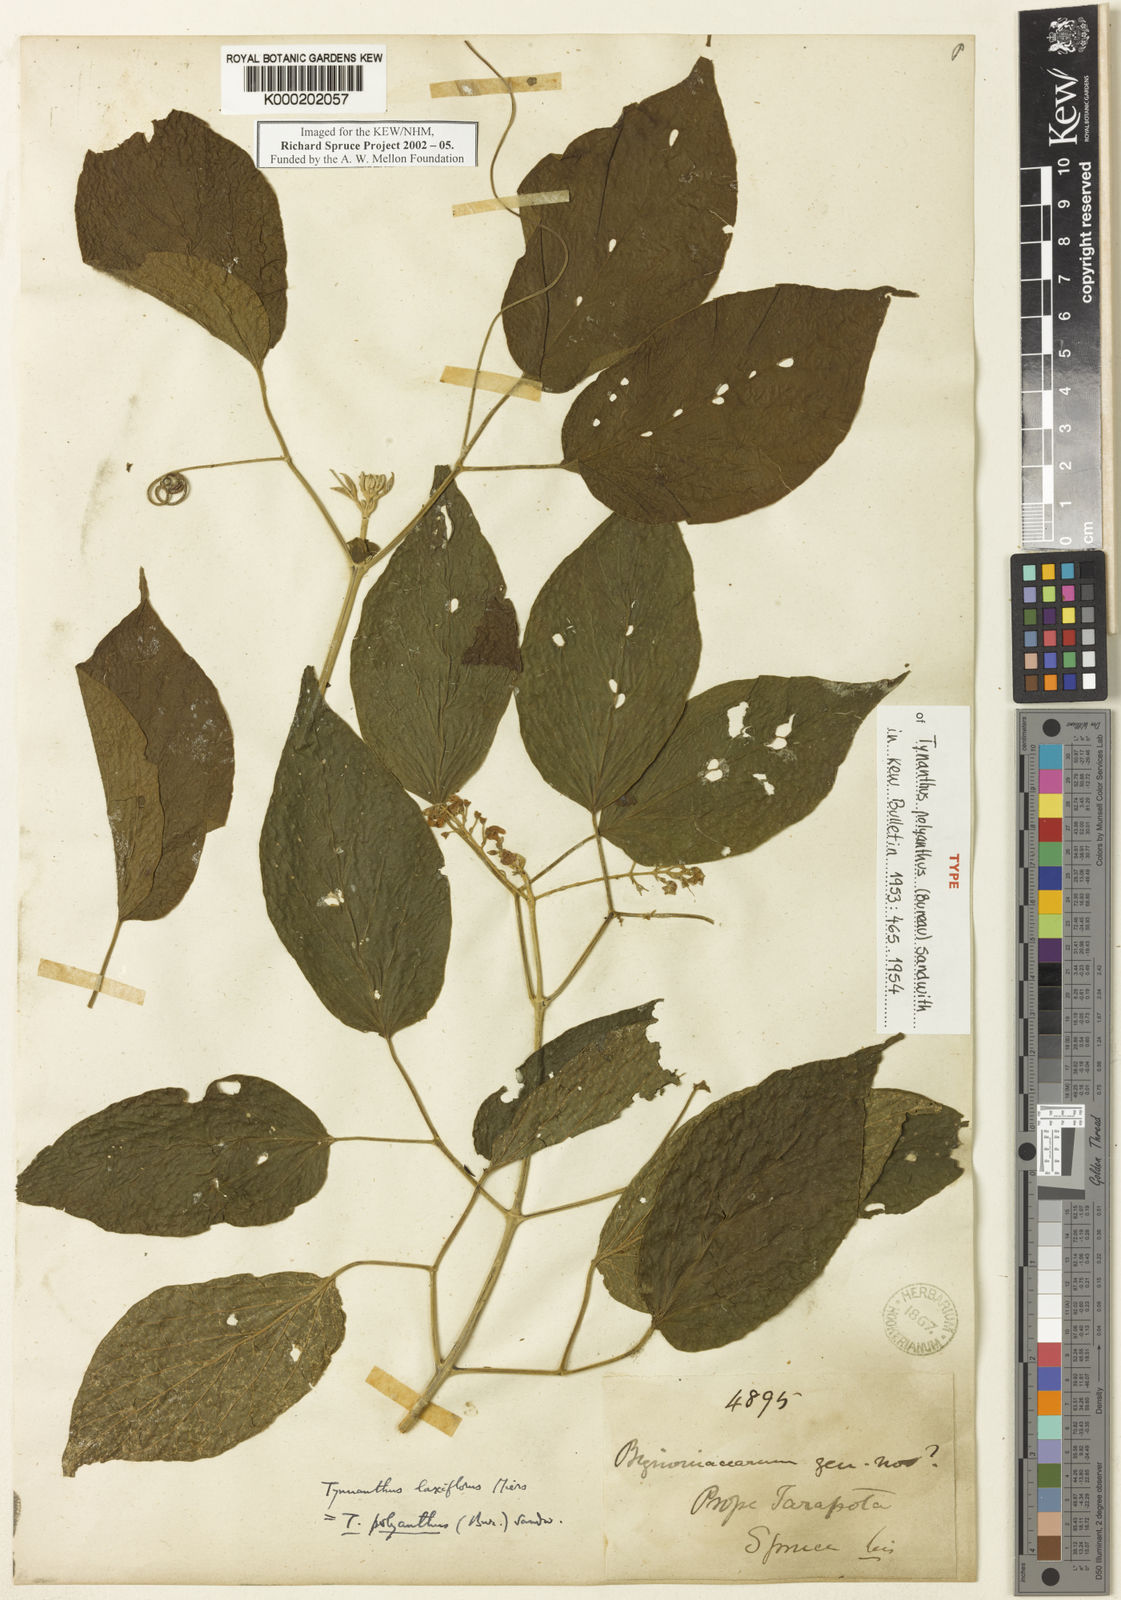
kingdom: Plantae
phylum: Tracheophyta
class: Magnoliopsida
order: Lamiales
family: Bignoniaceae
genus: Tynanthus
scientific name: Tynanthus polyanthus
